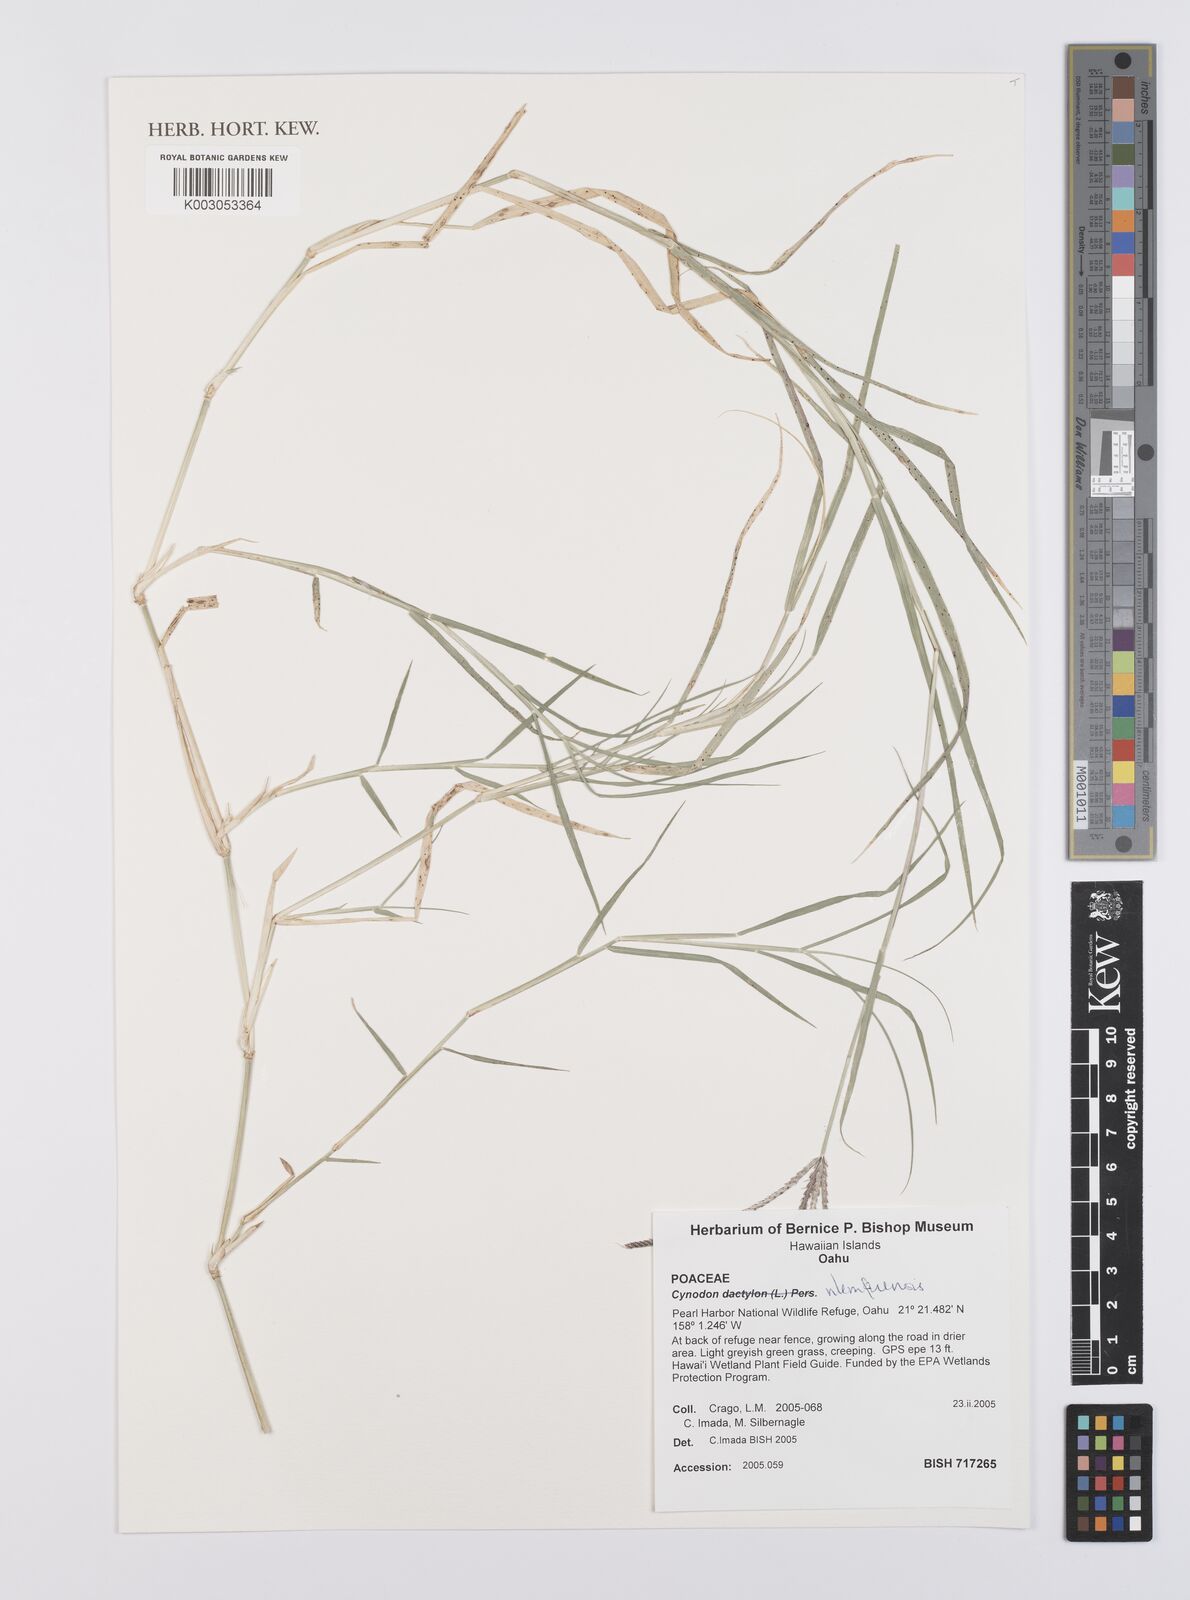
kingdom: Plantae
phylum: Tracheophyta
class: Liliopsida
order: Poales
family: Poaceae
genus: Cynodon
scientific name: Cynodon nlemfuensis
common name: African bermudagrass
